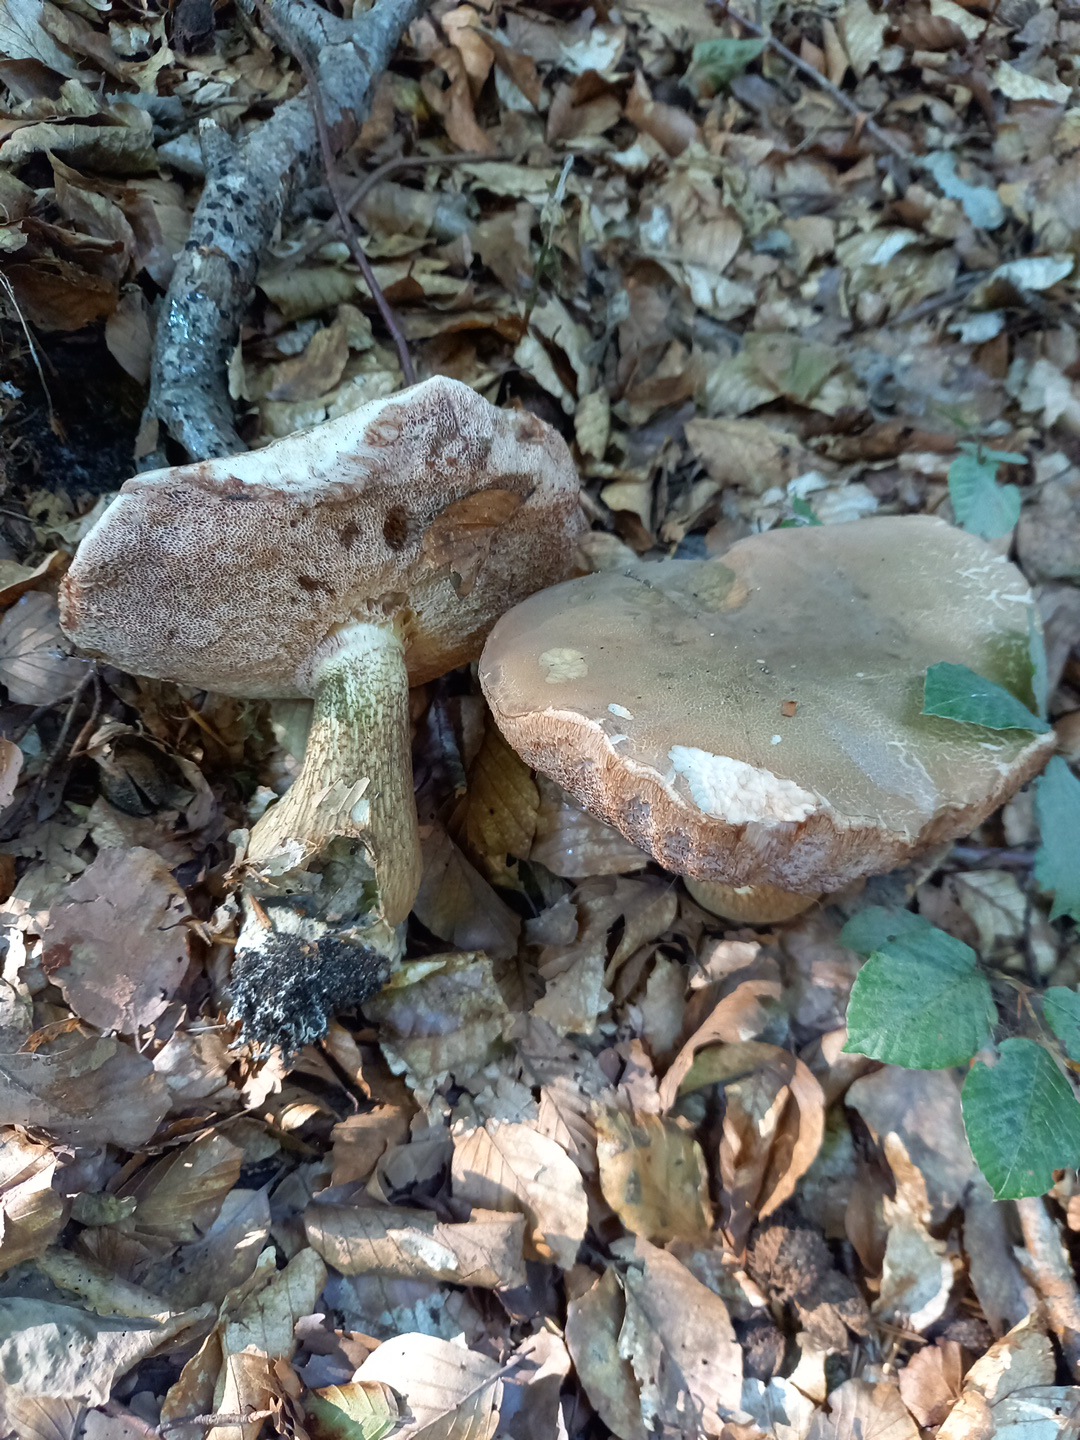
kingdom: Fungi
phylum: Basidiomycota
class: Agaricomycetes
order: Boletales
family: Boletaceae
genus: Tylopilus
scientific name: Tylopilus felleus
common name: galderørhat
